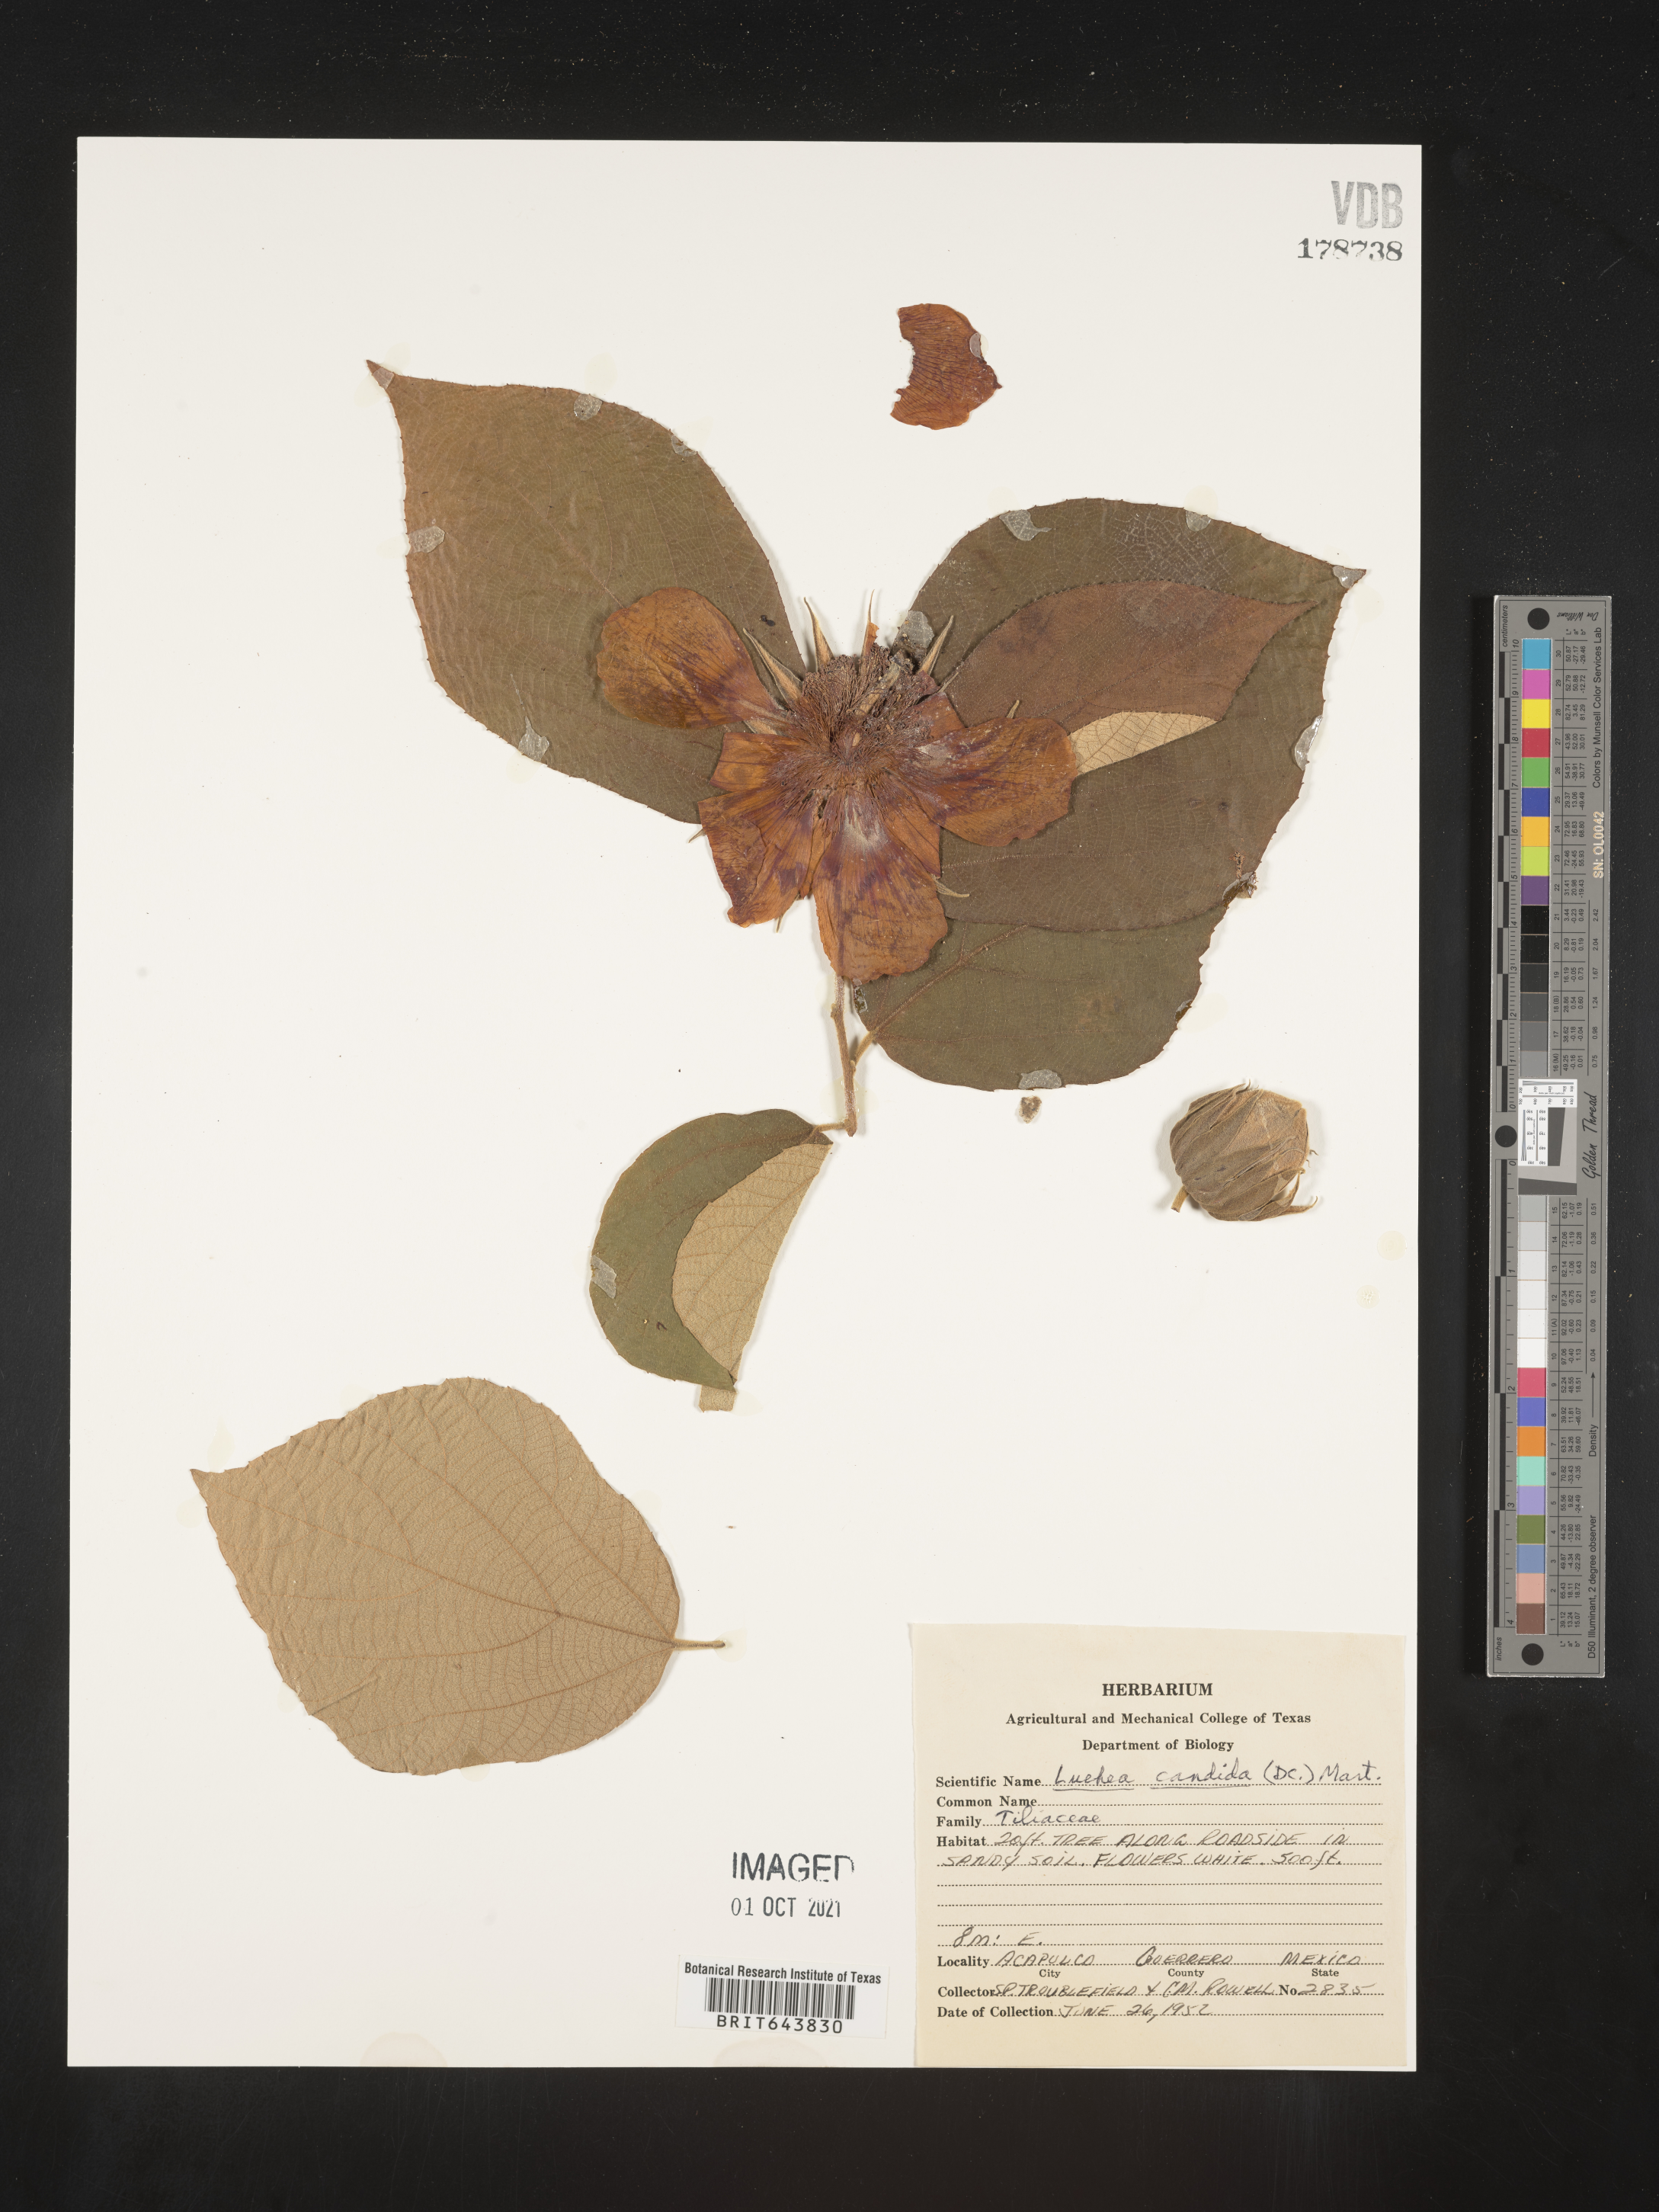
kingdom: Plantae
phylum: Tracheophyta
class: Magnoliopsida
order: Malvales
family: Malvaceae
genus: Luehea
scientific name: Luehea
